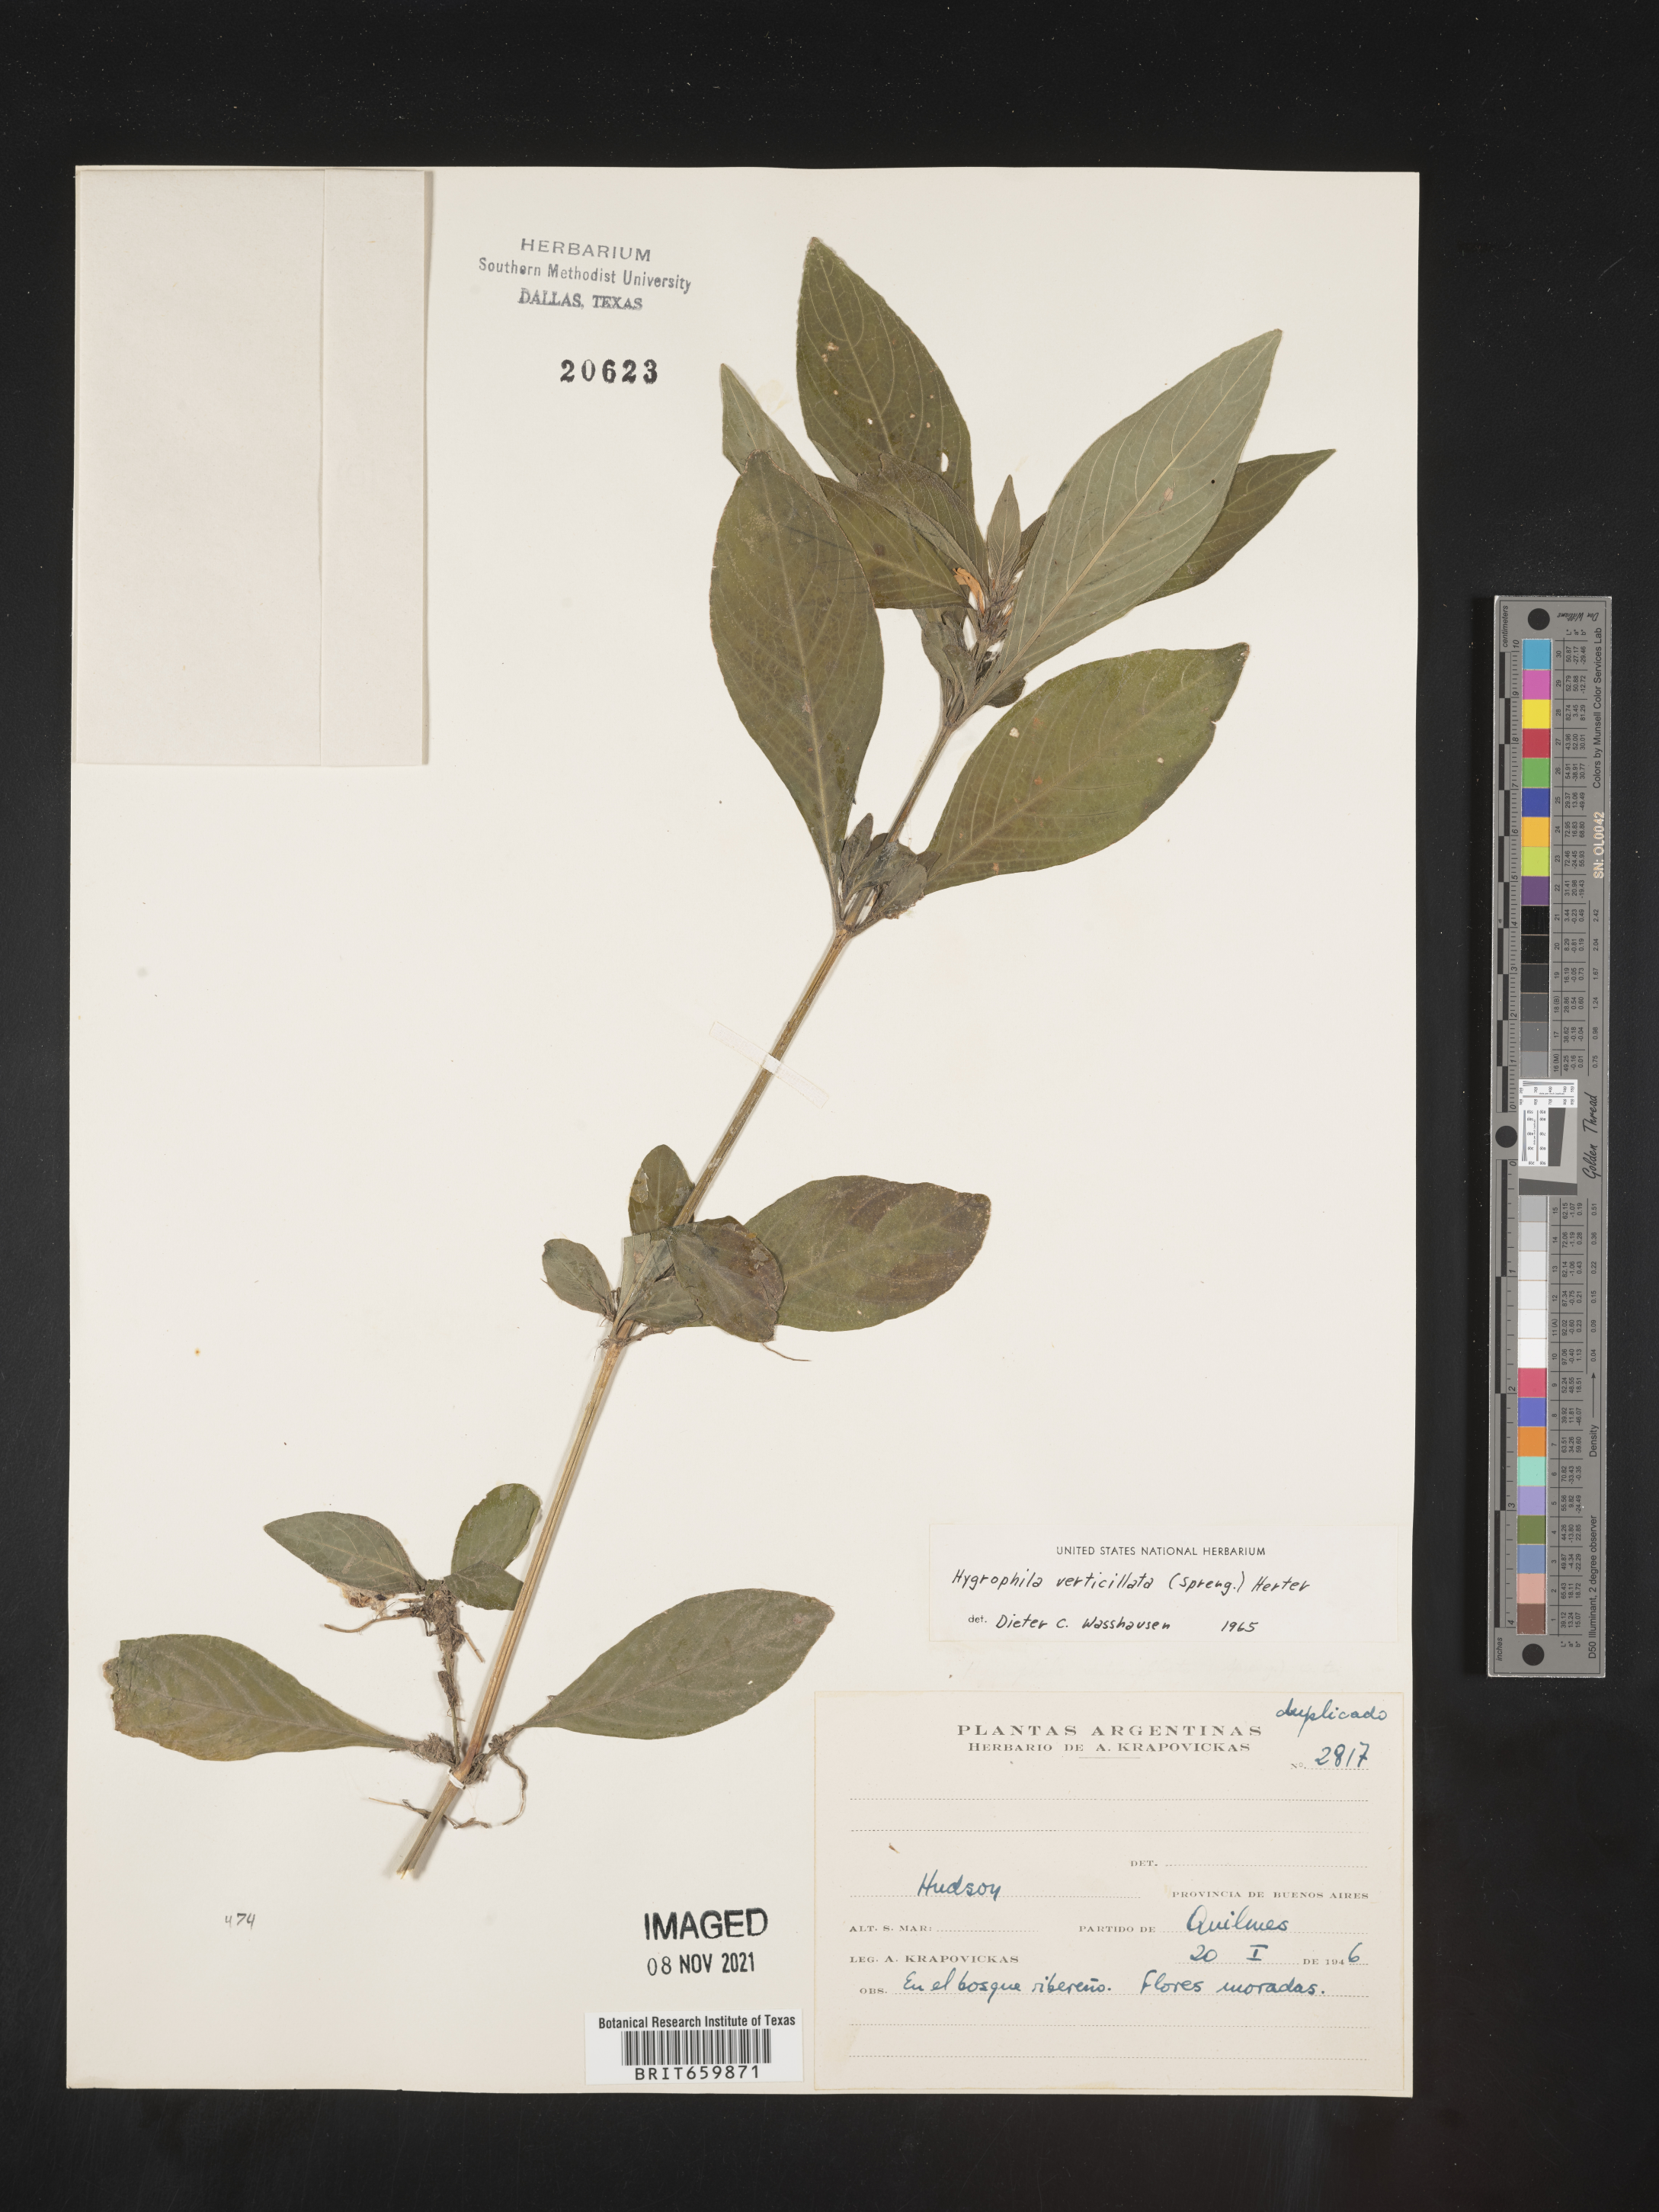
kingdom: Plantae
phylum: Tracheophyta
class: Magnoliopsida
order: Lamiales
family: Acanthaceae
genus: Hygrophila
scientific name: Hygrophila
